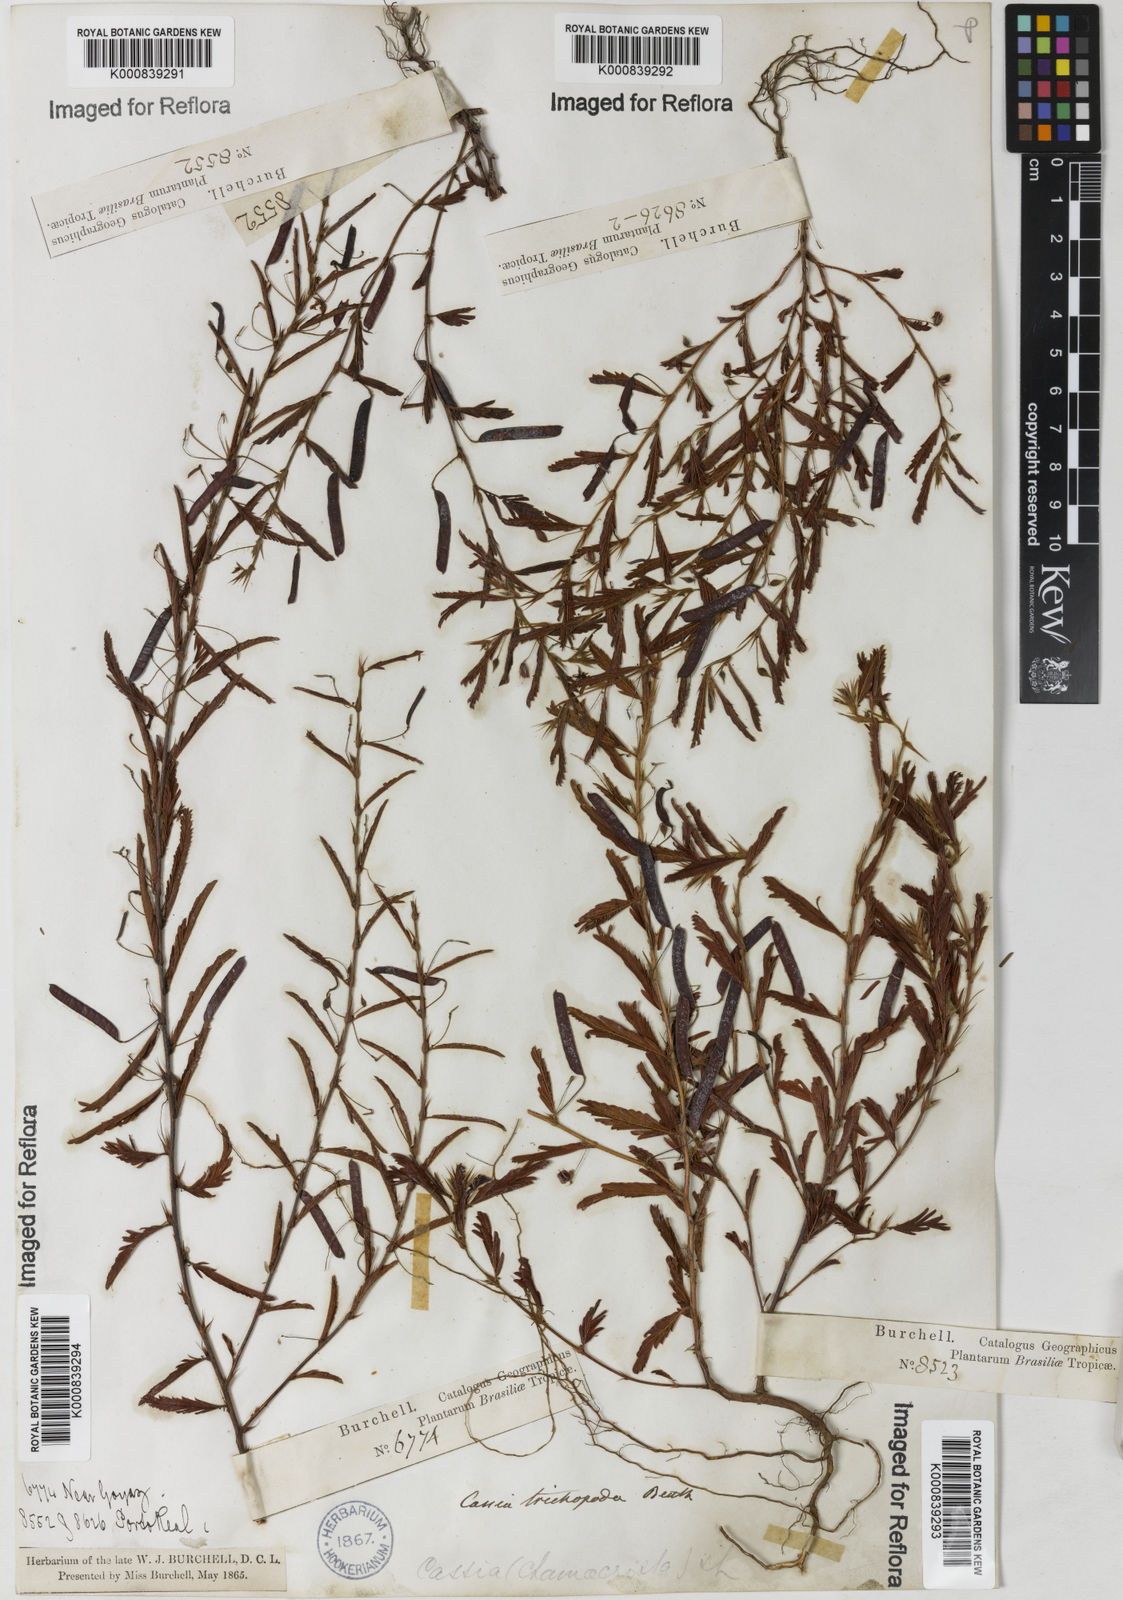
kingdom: Plantae
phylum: Tracheophyta
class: Magnoliopsida
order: Fabales
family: Fabaceae
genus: Chamaecrista
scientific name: Chamaecrista trichopoda
